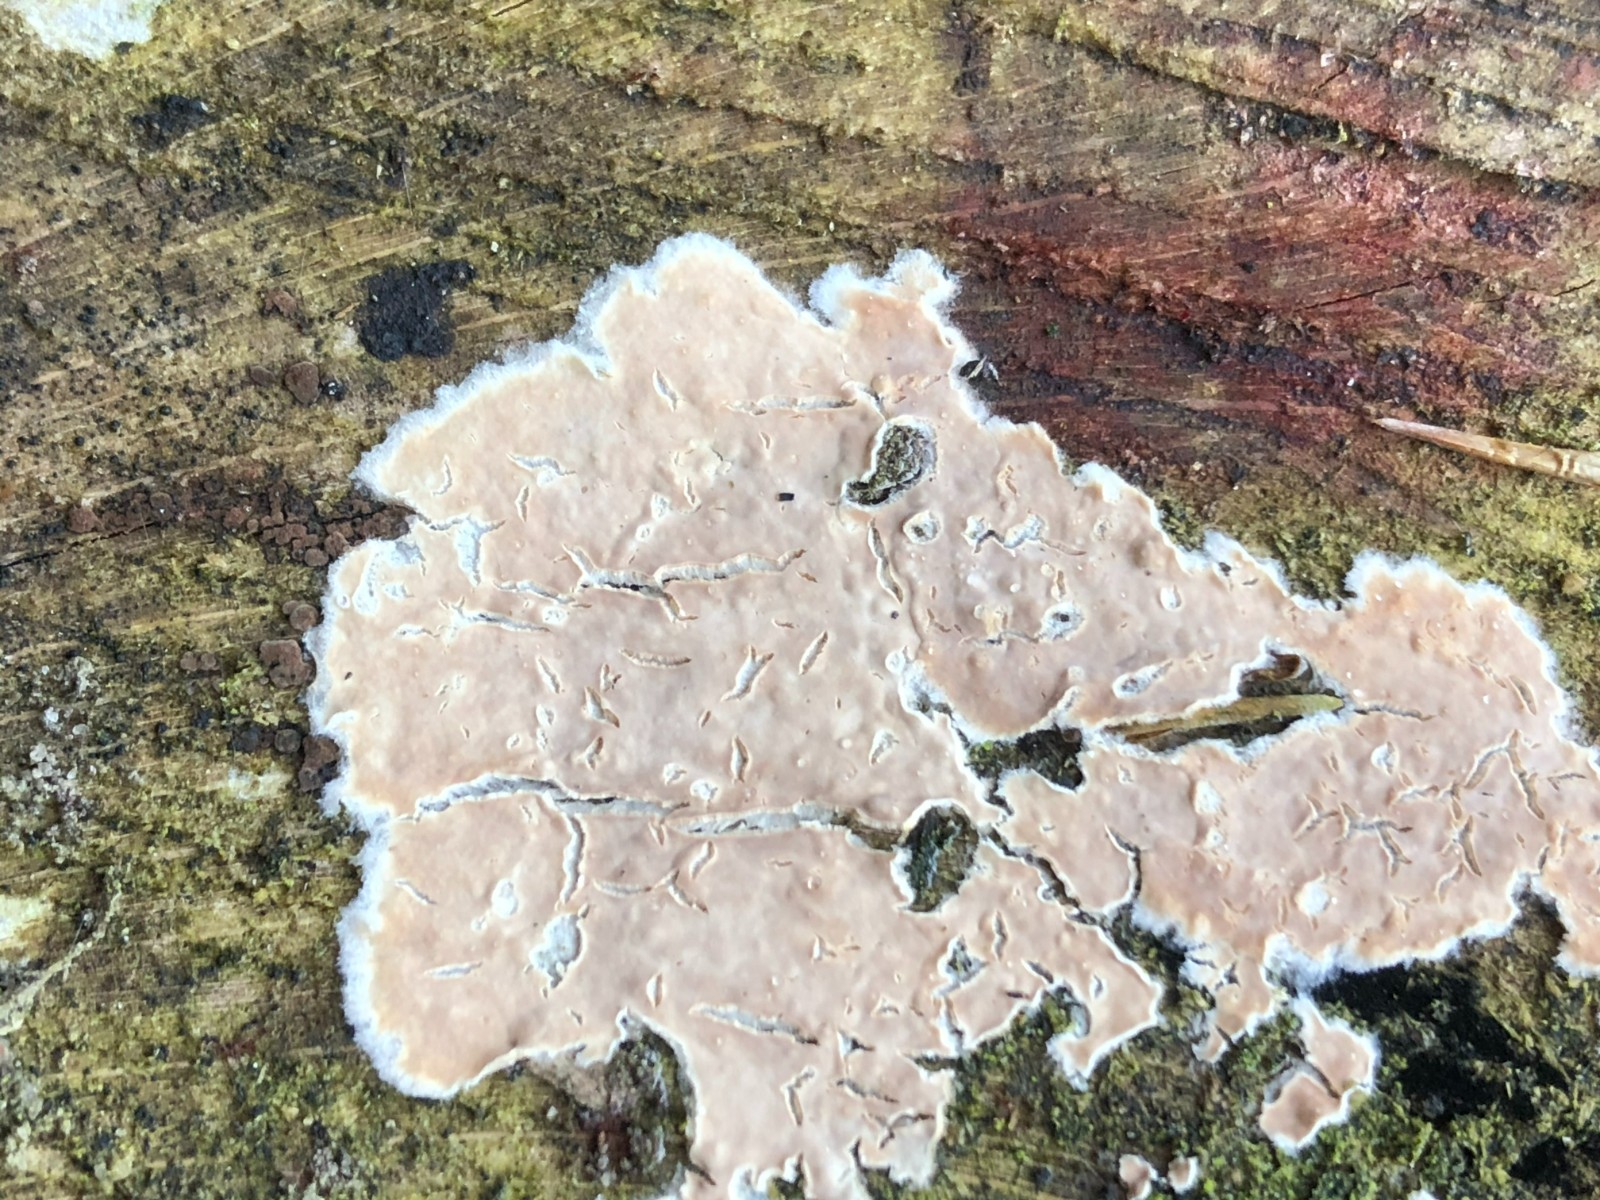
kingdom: Fungi
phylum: Basidiomycota
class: Agaricomycetes
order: Agaricales
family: Physalacriaceae
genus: Cylindrobasidium
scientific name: Cylindrobasidium evolvens
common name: sprækkehinde
